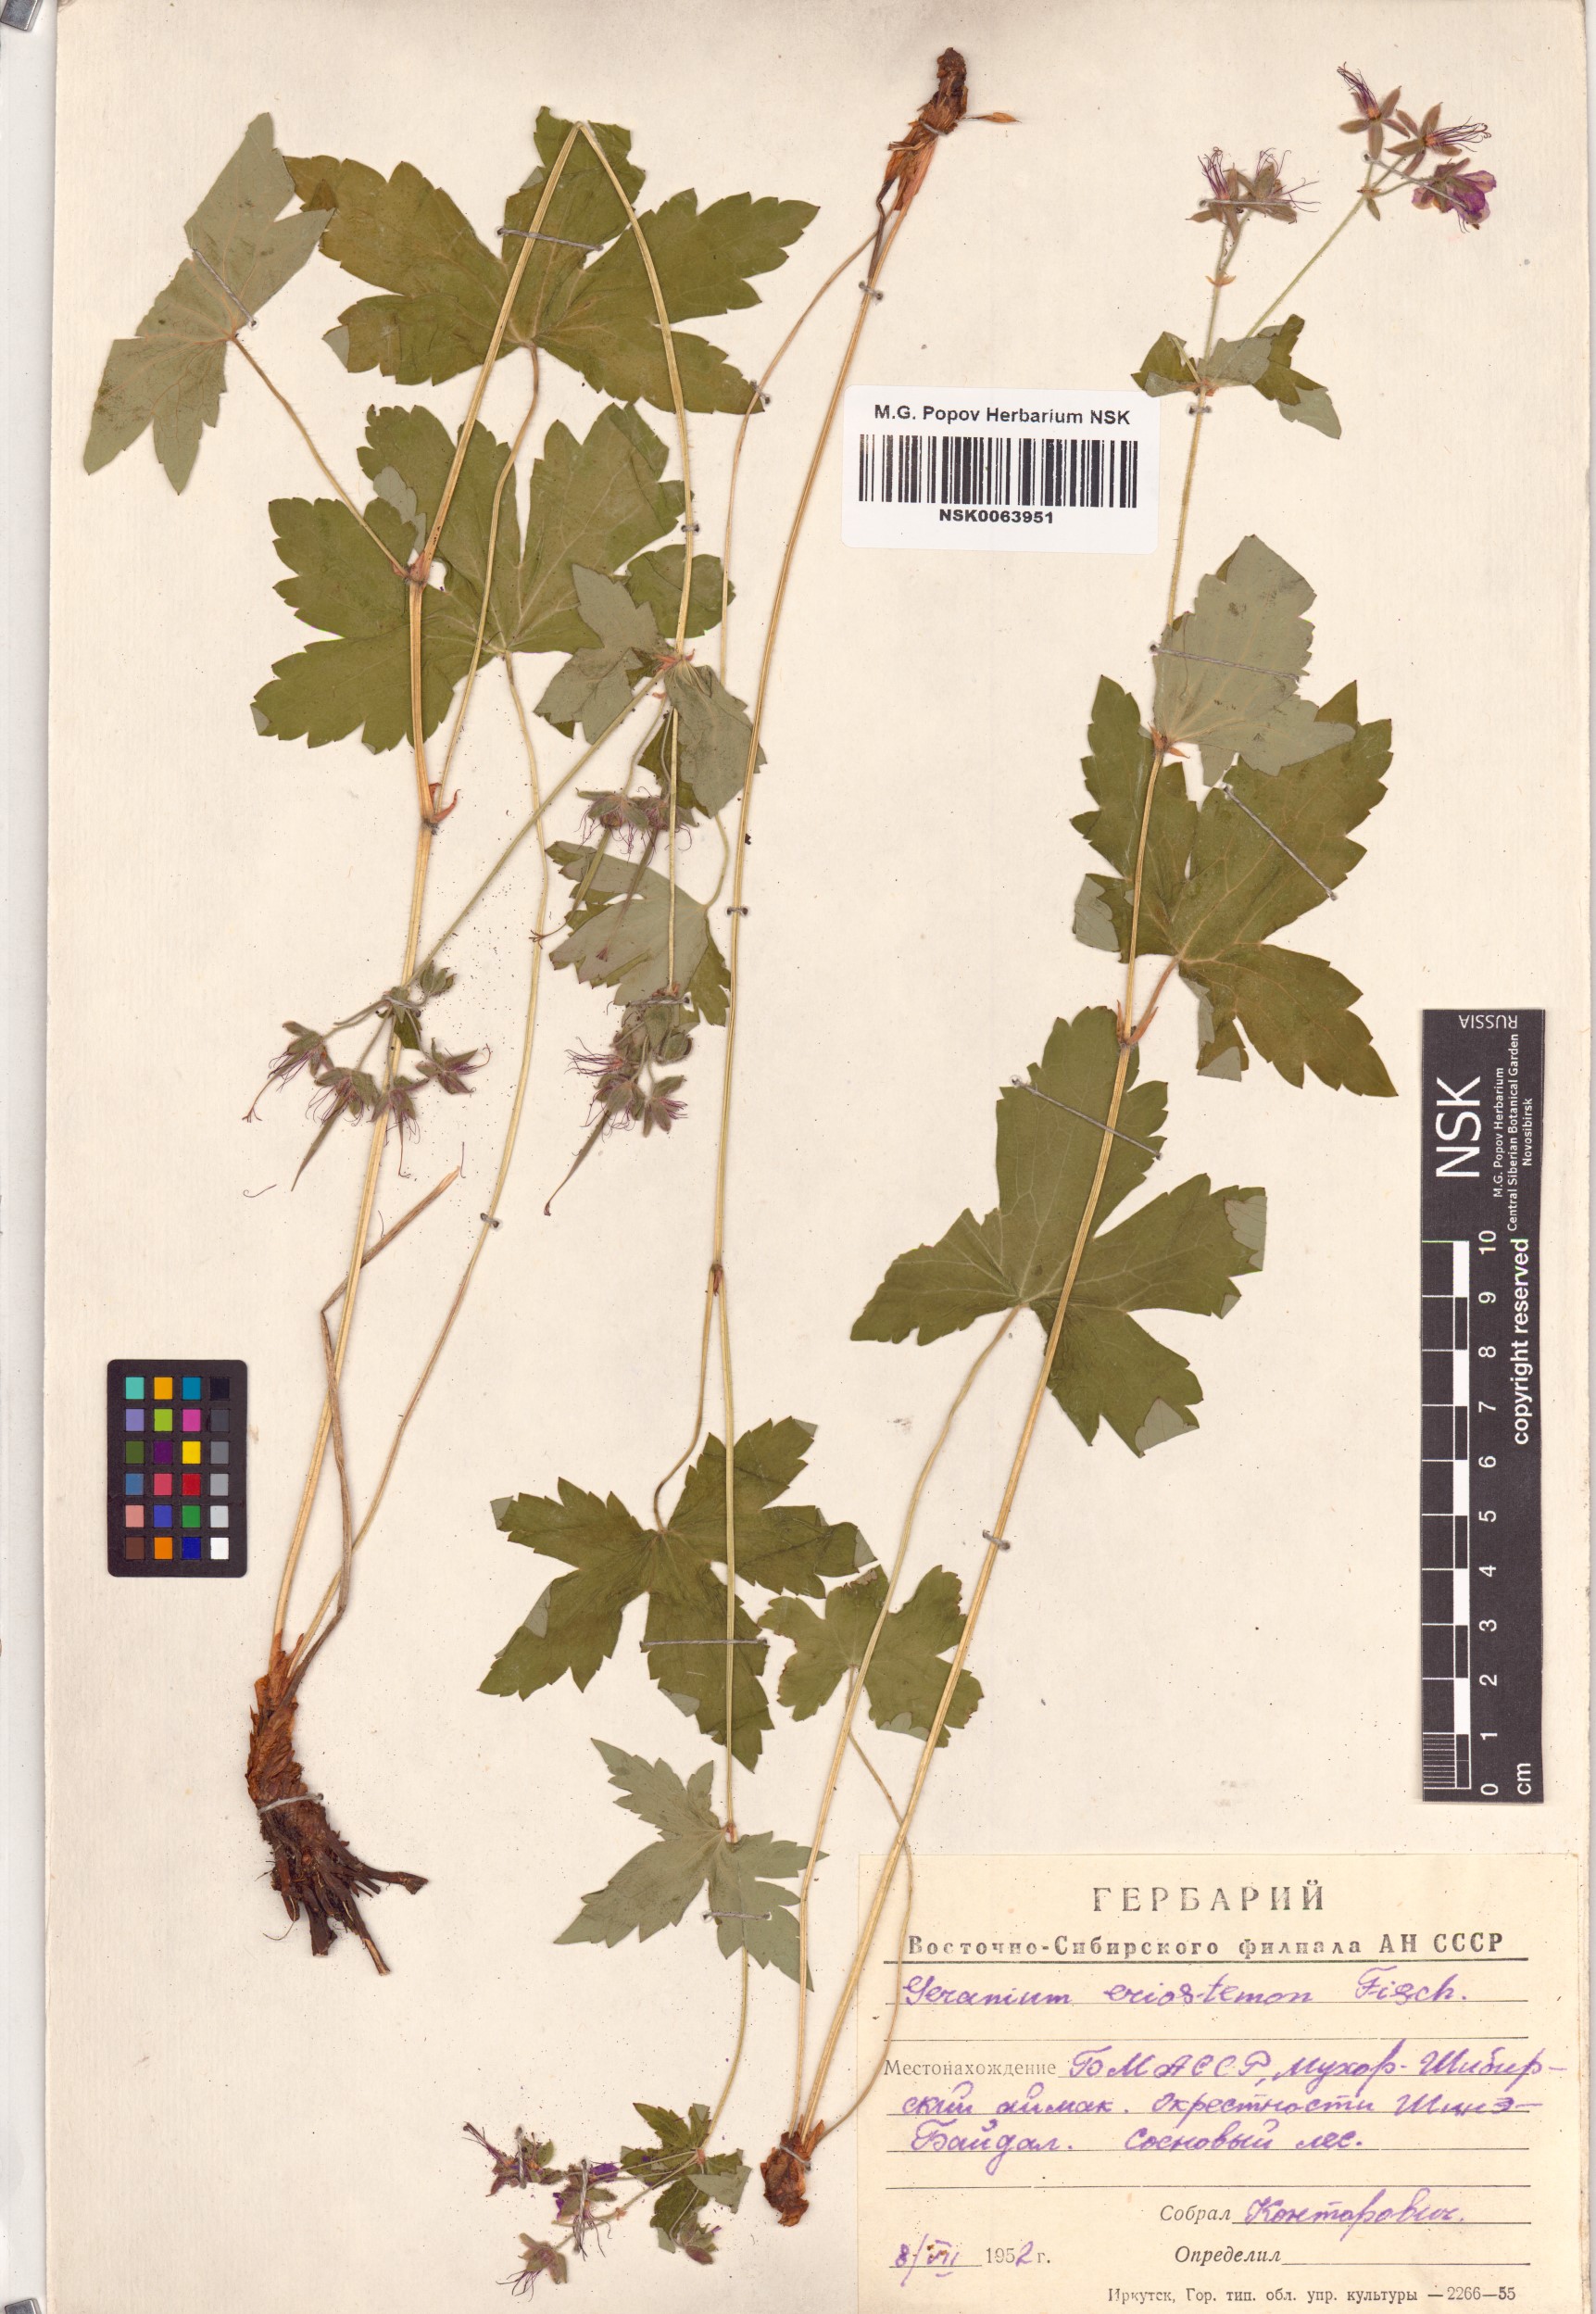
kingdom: Plantae
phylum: Tracheophyta
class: Magnoliopsida
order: Geraniales
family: Geraniaceae
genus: Geranium
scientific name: Geranium platyanthum
